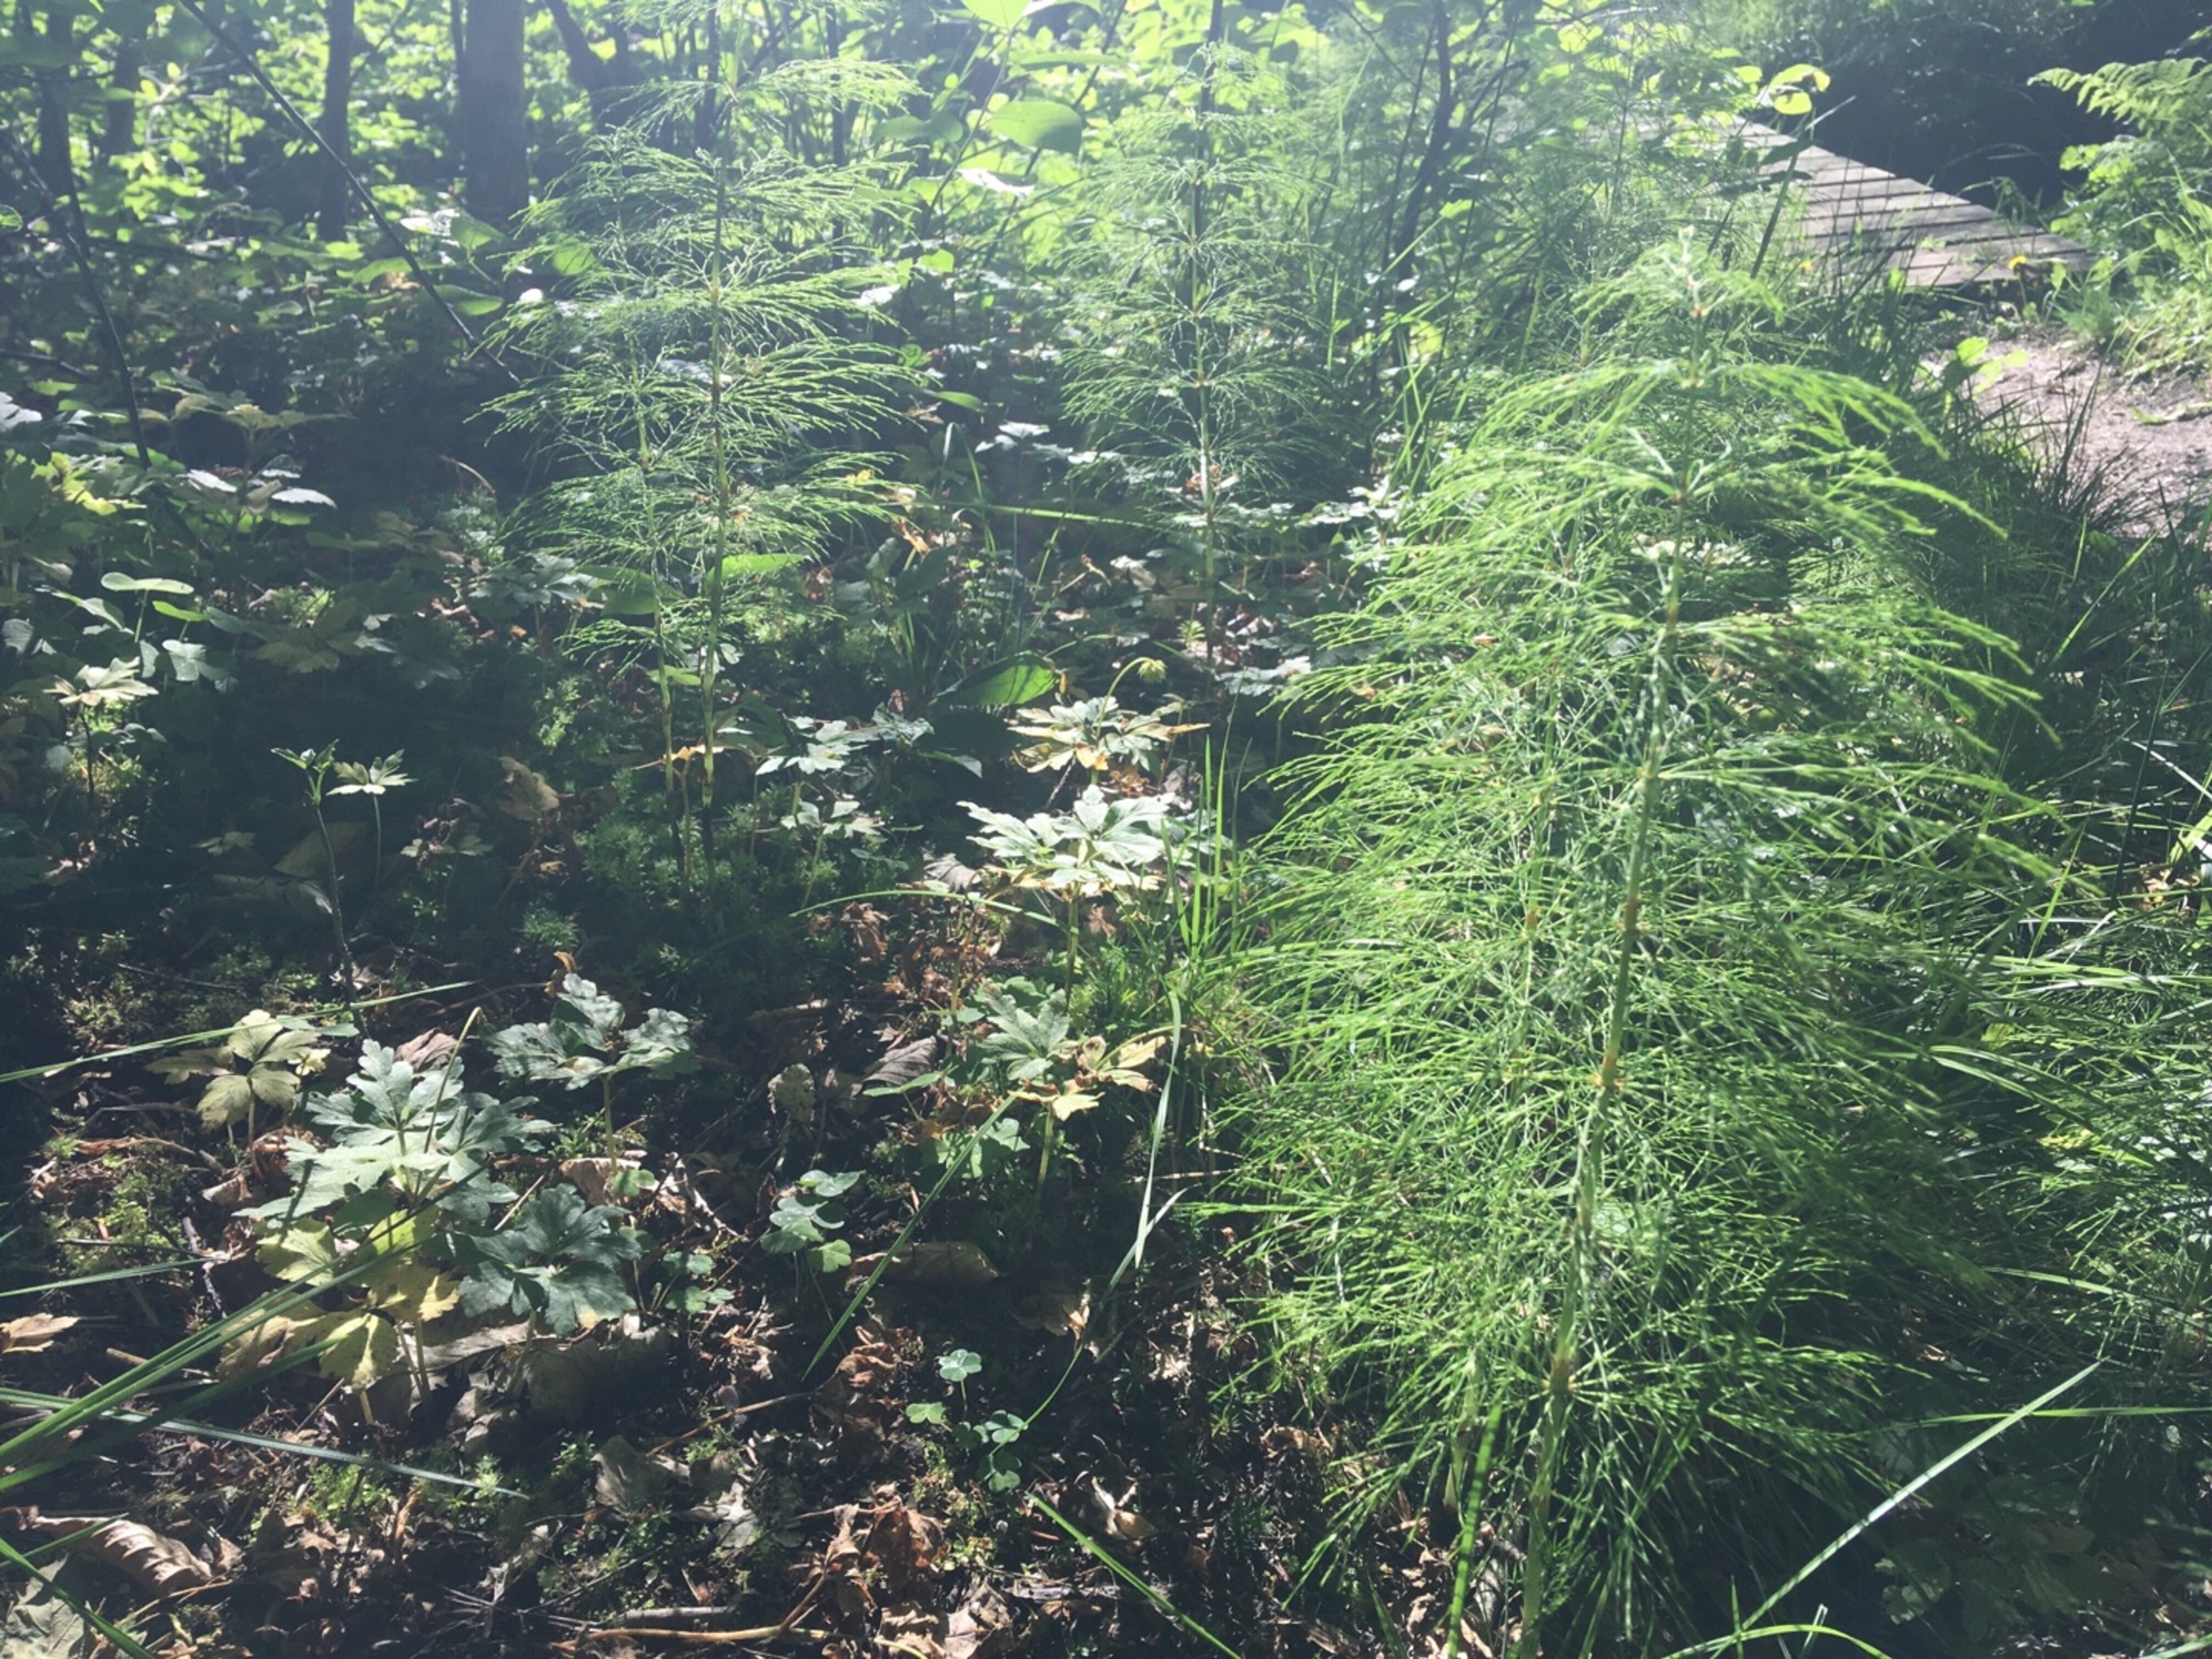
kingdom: Plantae
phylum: Tracheophyta
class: Polypodiopsida
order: Equisetales
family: Equisetaceae
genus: Equisetum
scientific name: Equisetum sylvaticum
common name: Skov-padderok
